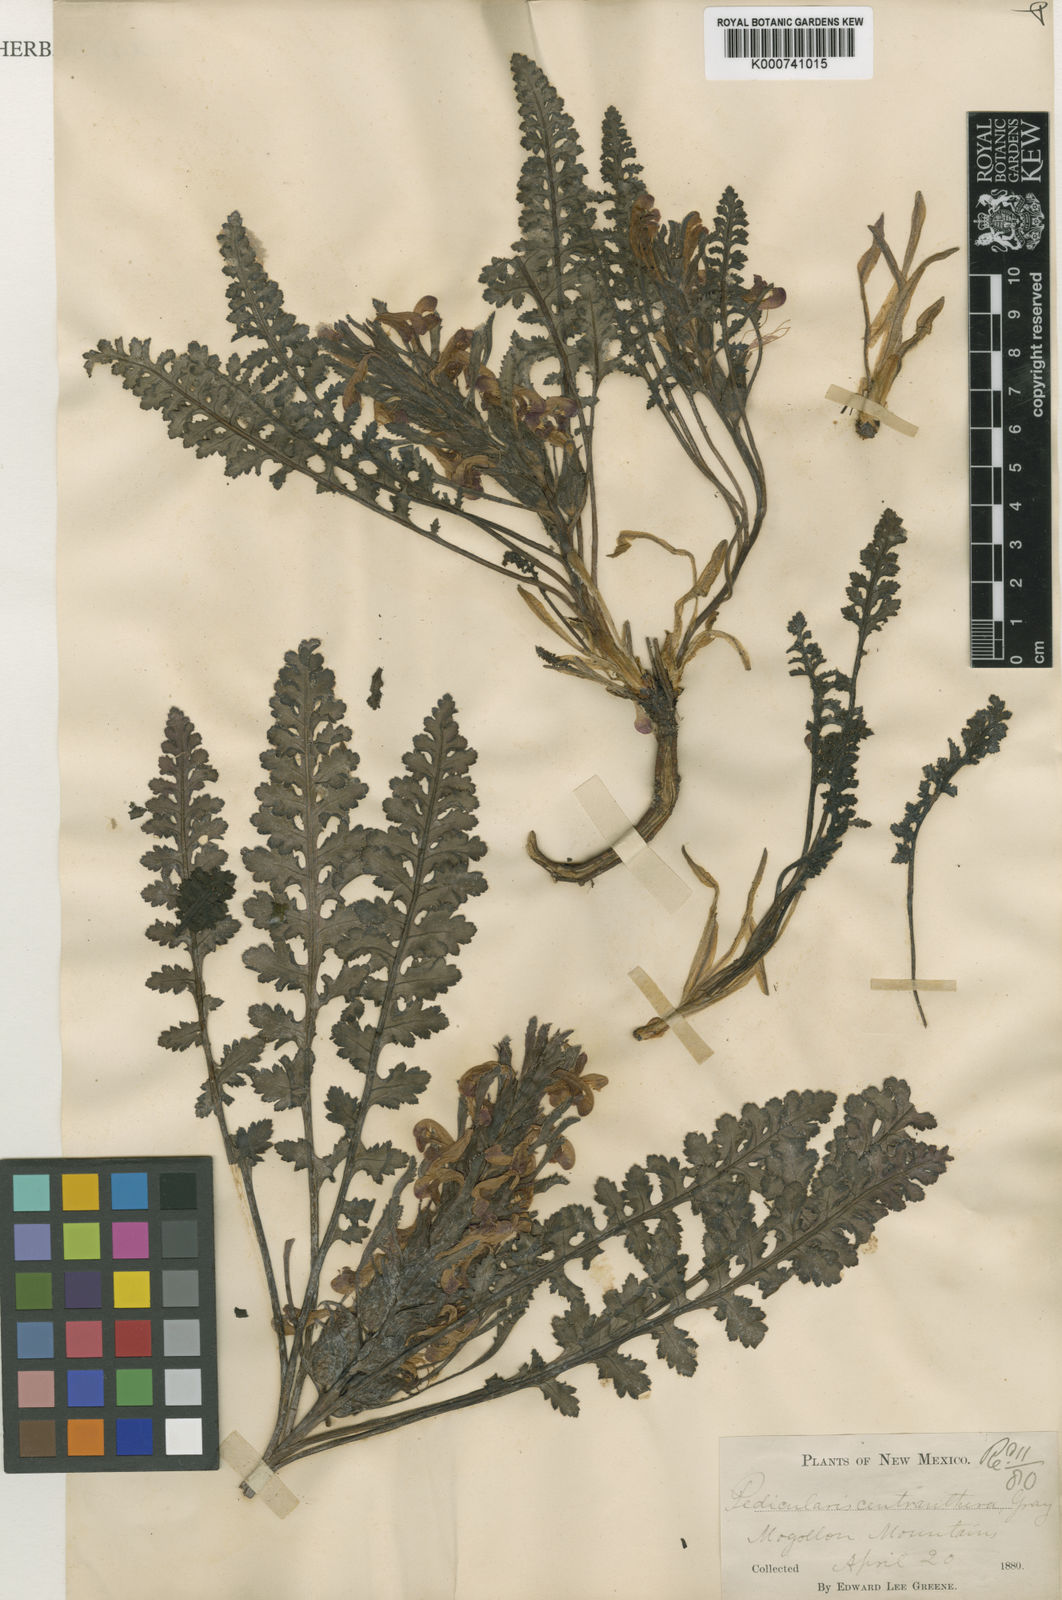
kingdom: Plantae
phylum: Tracheophyta
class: Magnoliopsida
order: Lamiales
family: Orobanchaceae
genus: Pedicularis
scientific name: Pedicularis centranthera
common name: Dwarf lousewort
